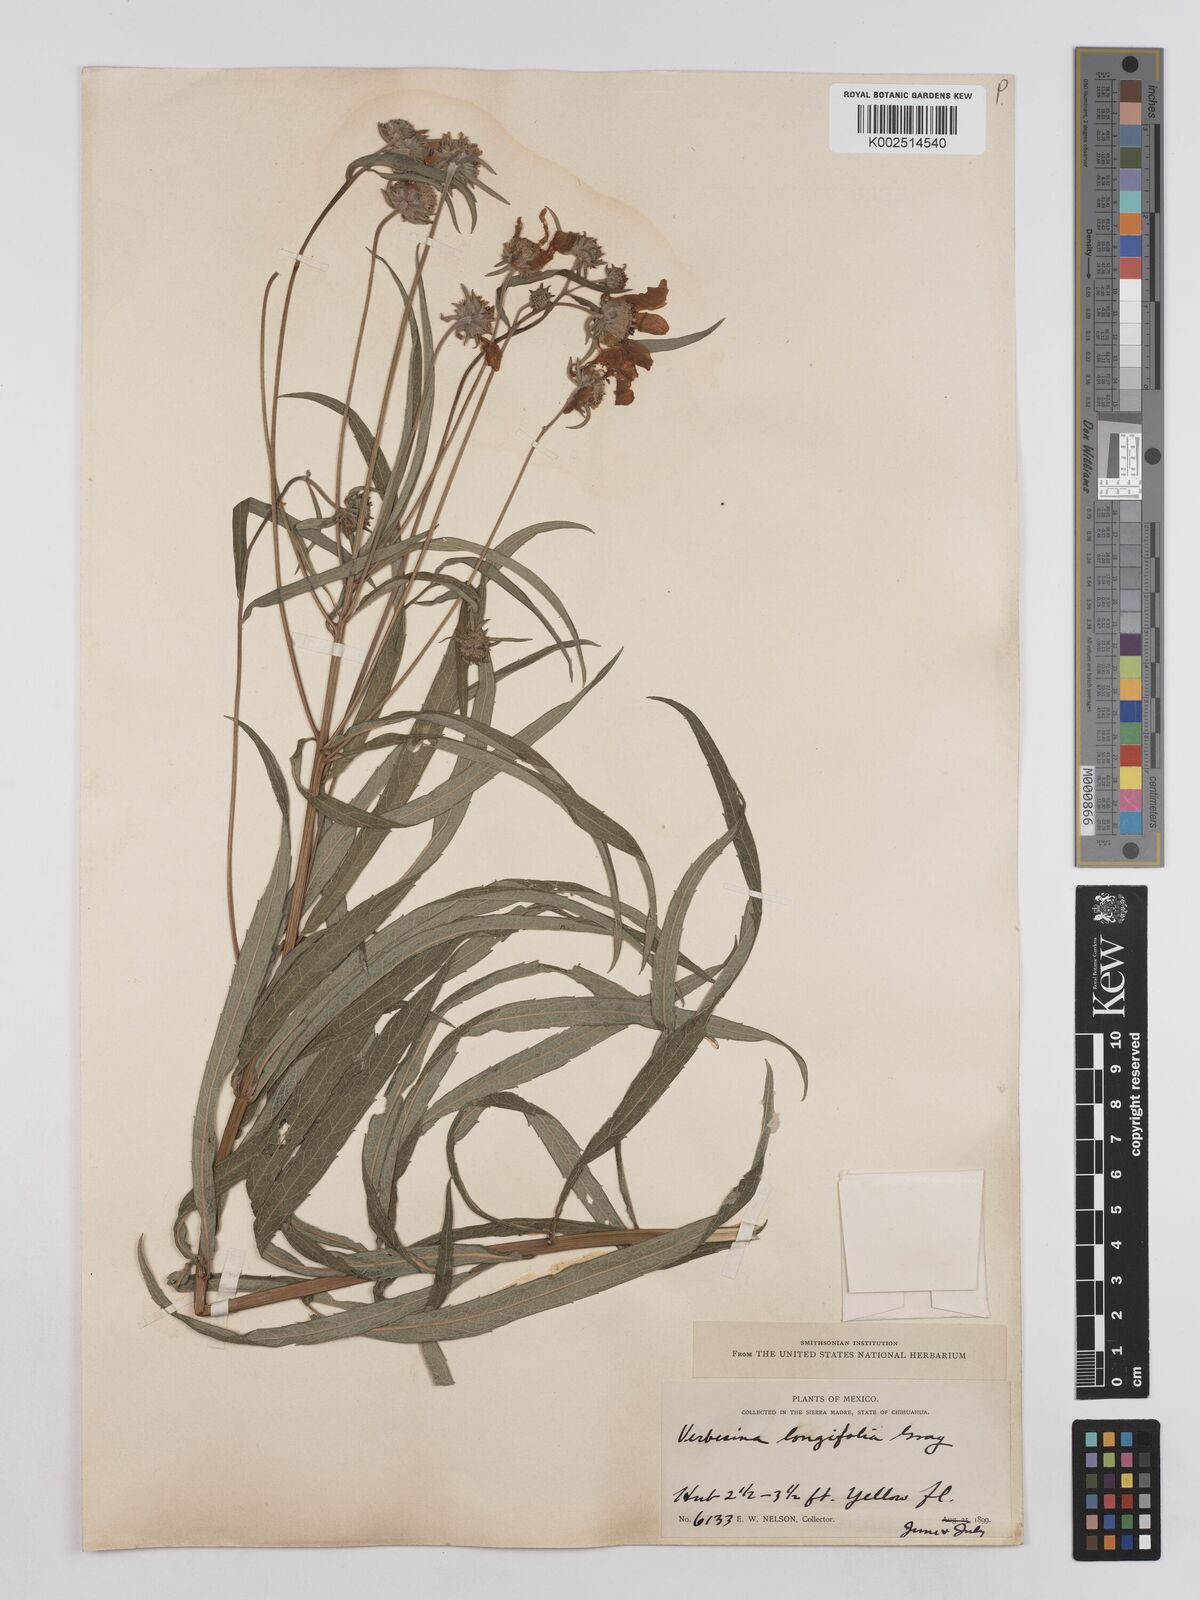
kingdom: Plantae
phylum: Tracheophyta
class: Magnoliopsida
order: Asterales
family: Asteraceae
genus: Verbesina
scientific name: Verbesina longifolia
